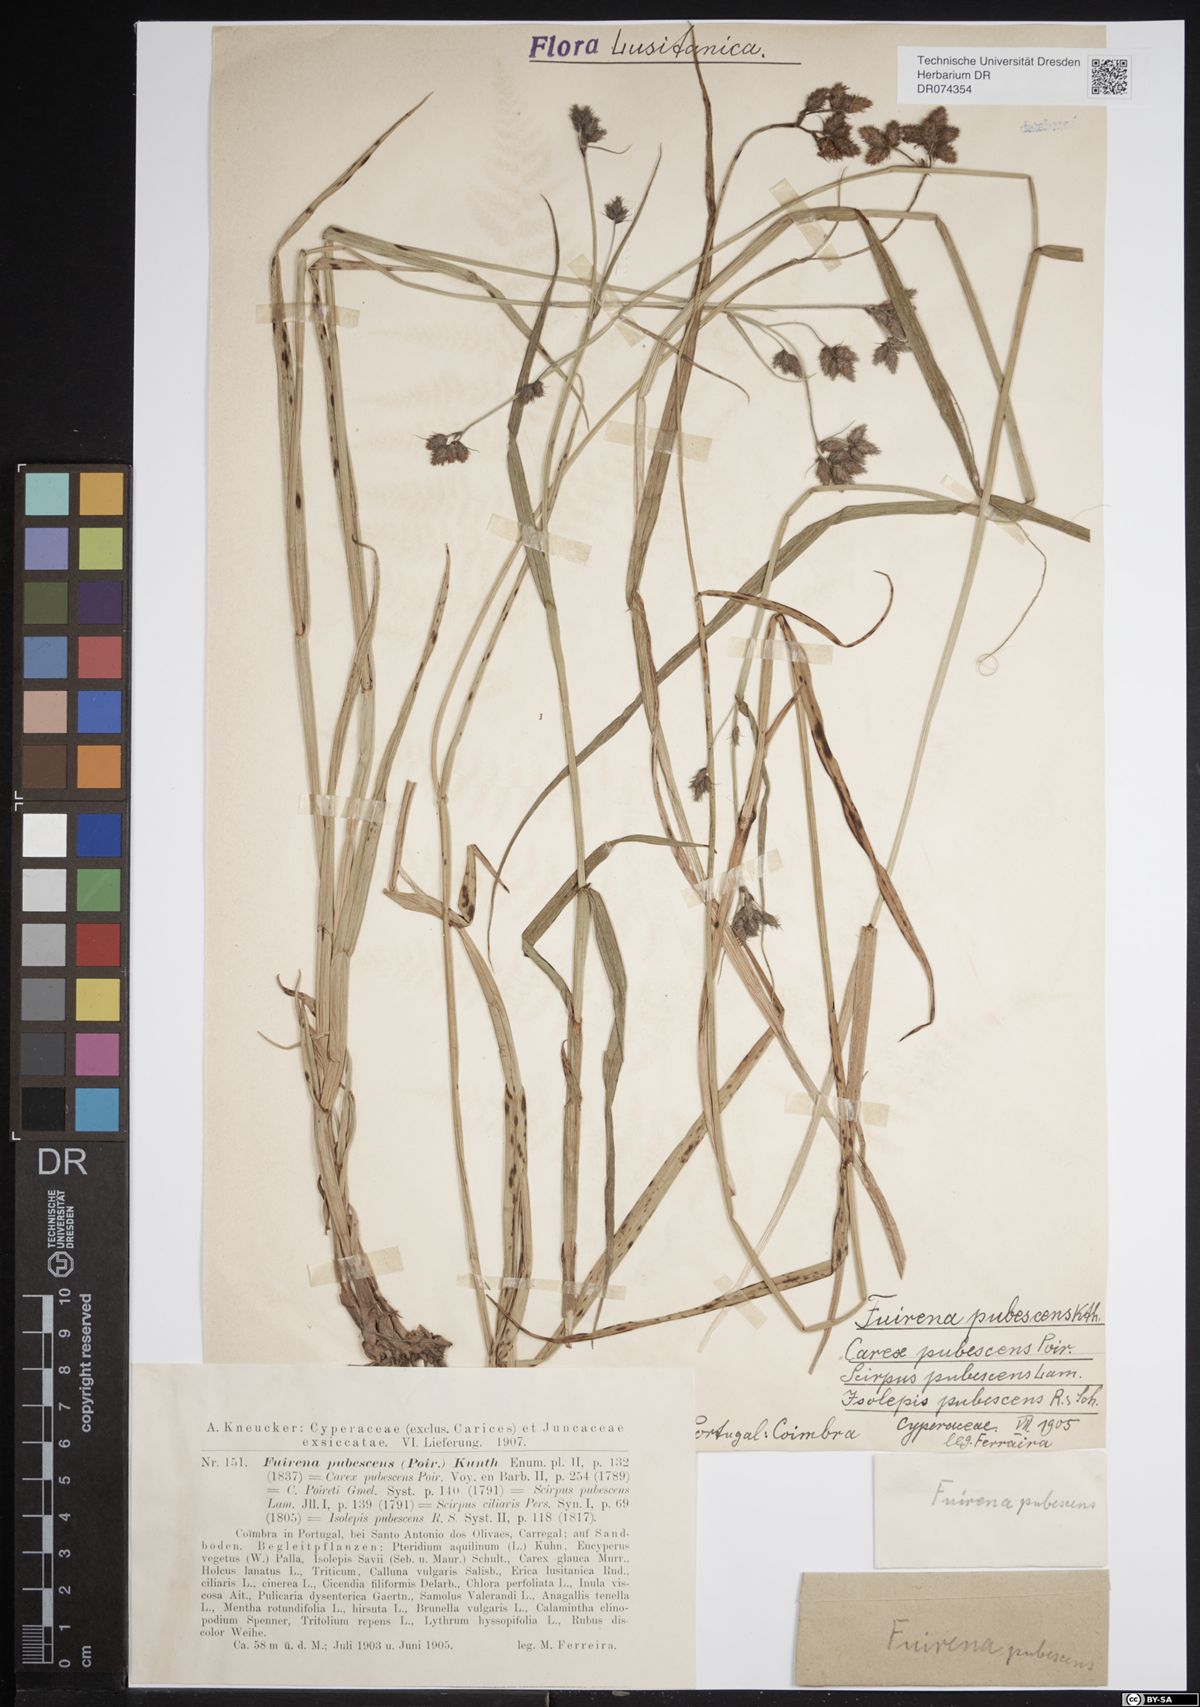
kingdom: Plantae
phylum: Tracheophyta
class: Liliopsida
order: Poales
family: Cyperaceae
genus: Fuirena
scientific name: Fuirena pubescens
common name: Hairy sedge
